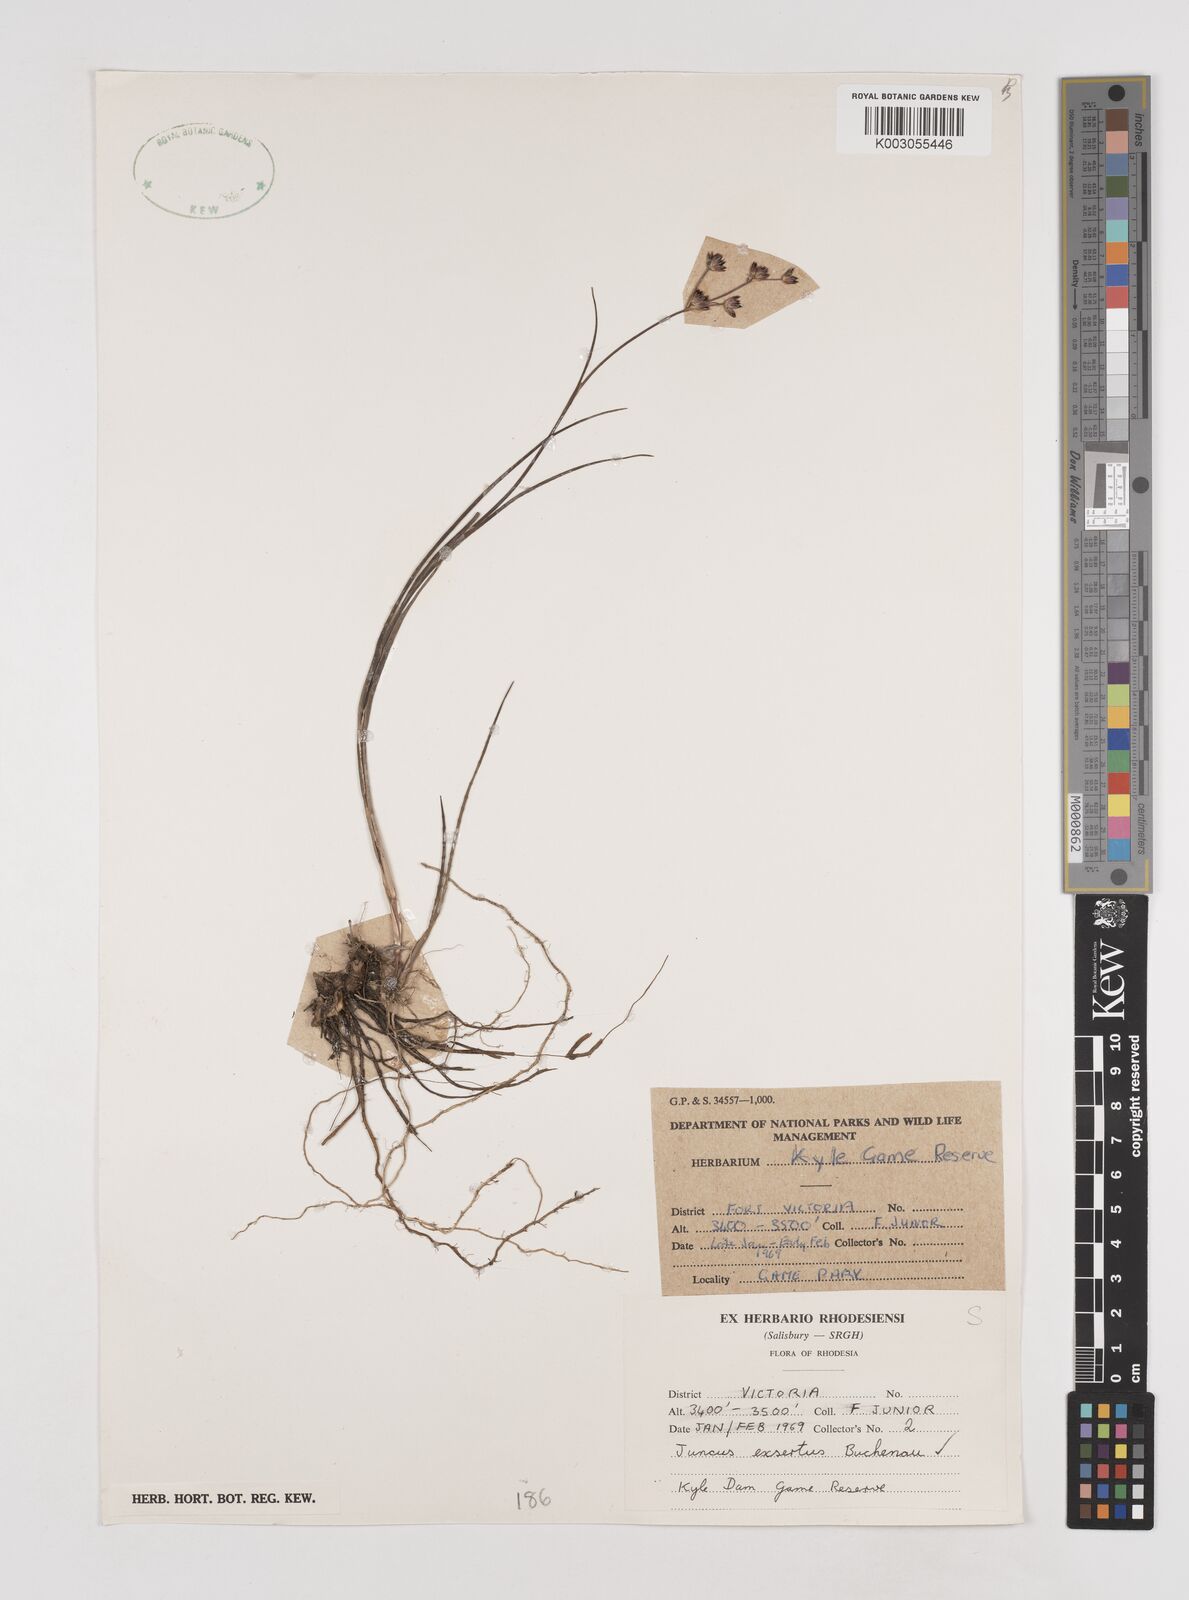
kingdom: Plantae
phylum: Tracheophyta
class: Liliopsida
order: Poales
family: Juncaceae
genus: Juncus
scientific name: Juncus exsertus
